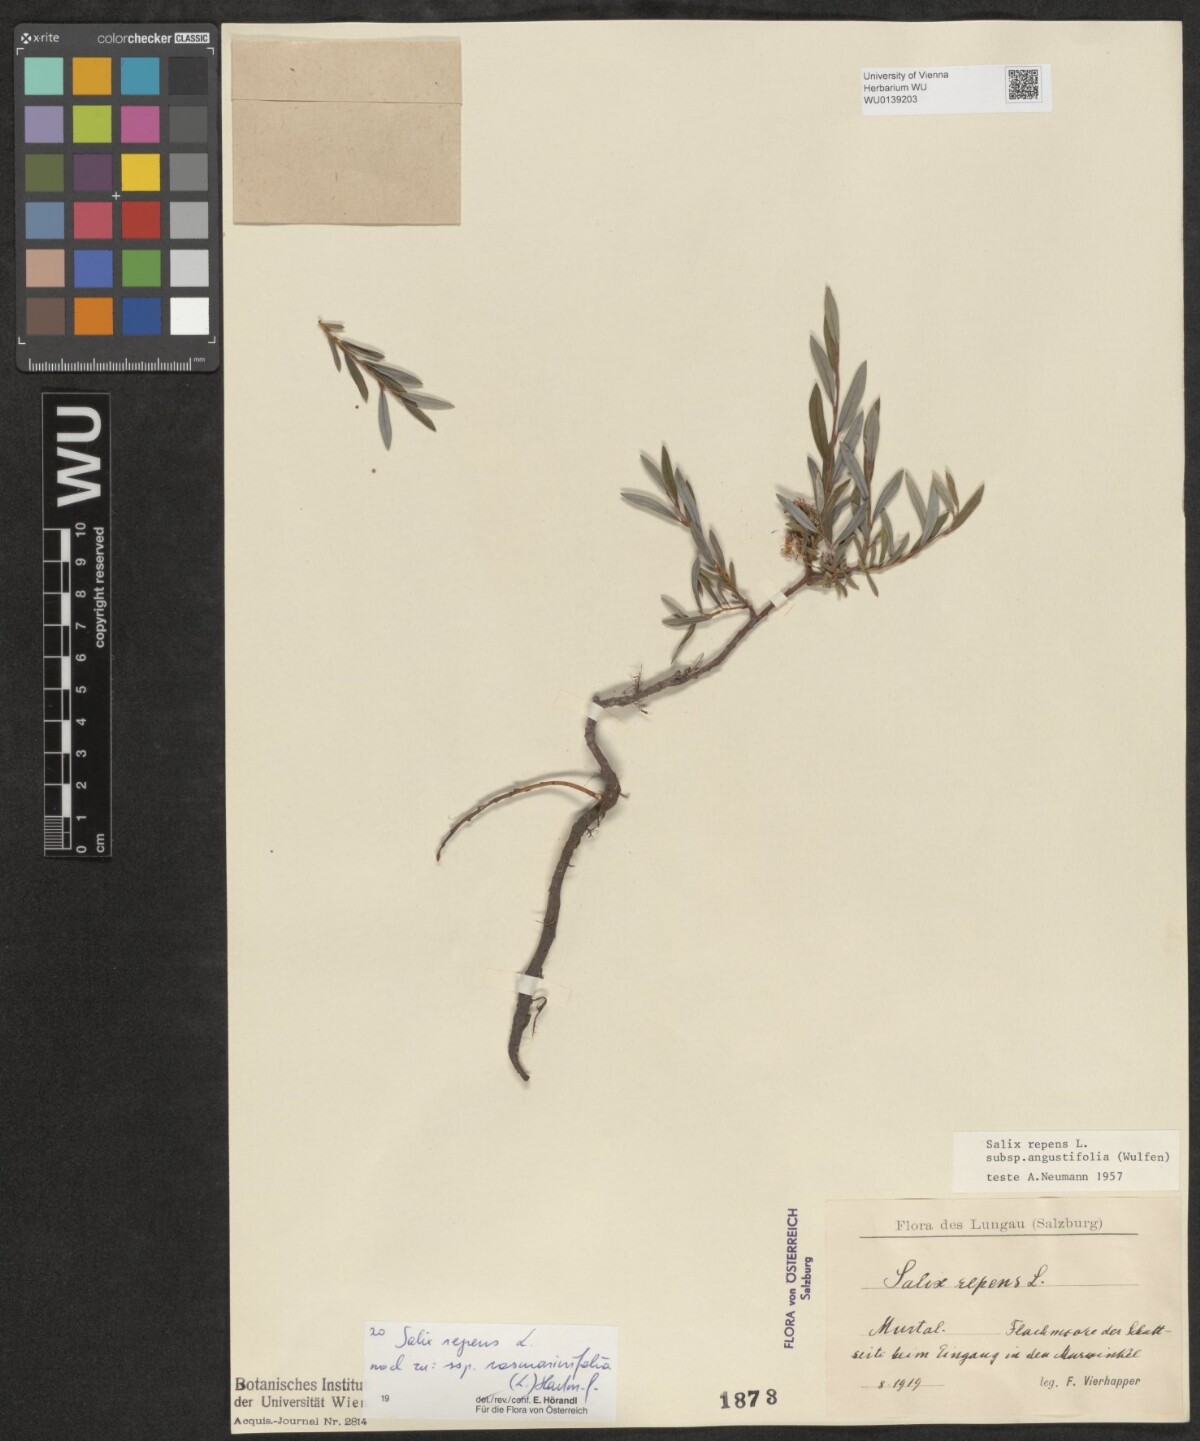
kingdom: Plantae
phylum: Tracheophyta
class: Magnoliopsida
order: Malpighiales
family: Salicaceae
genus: Salix
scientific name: Salix repens
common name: Creeping willow
